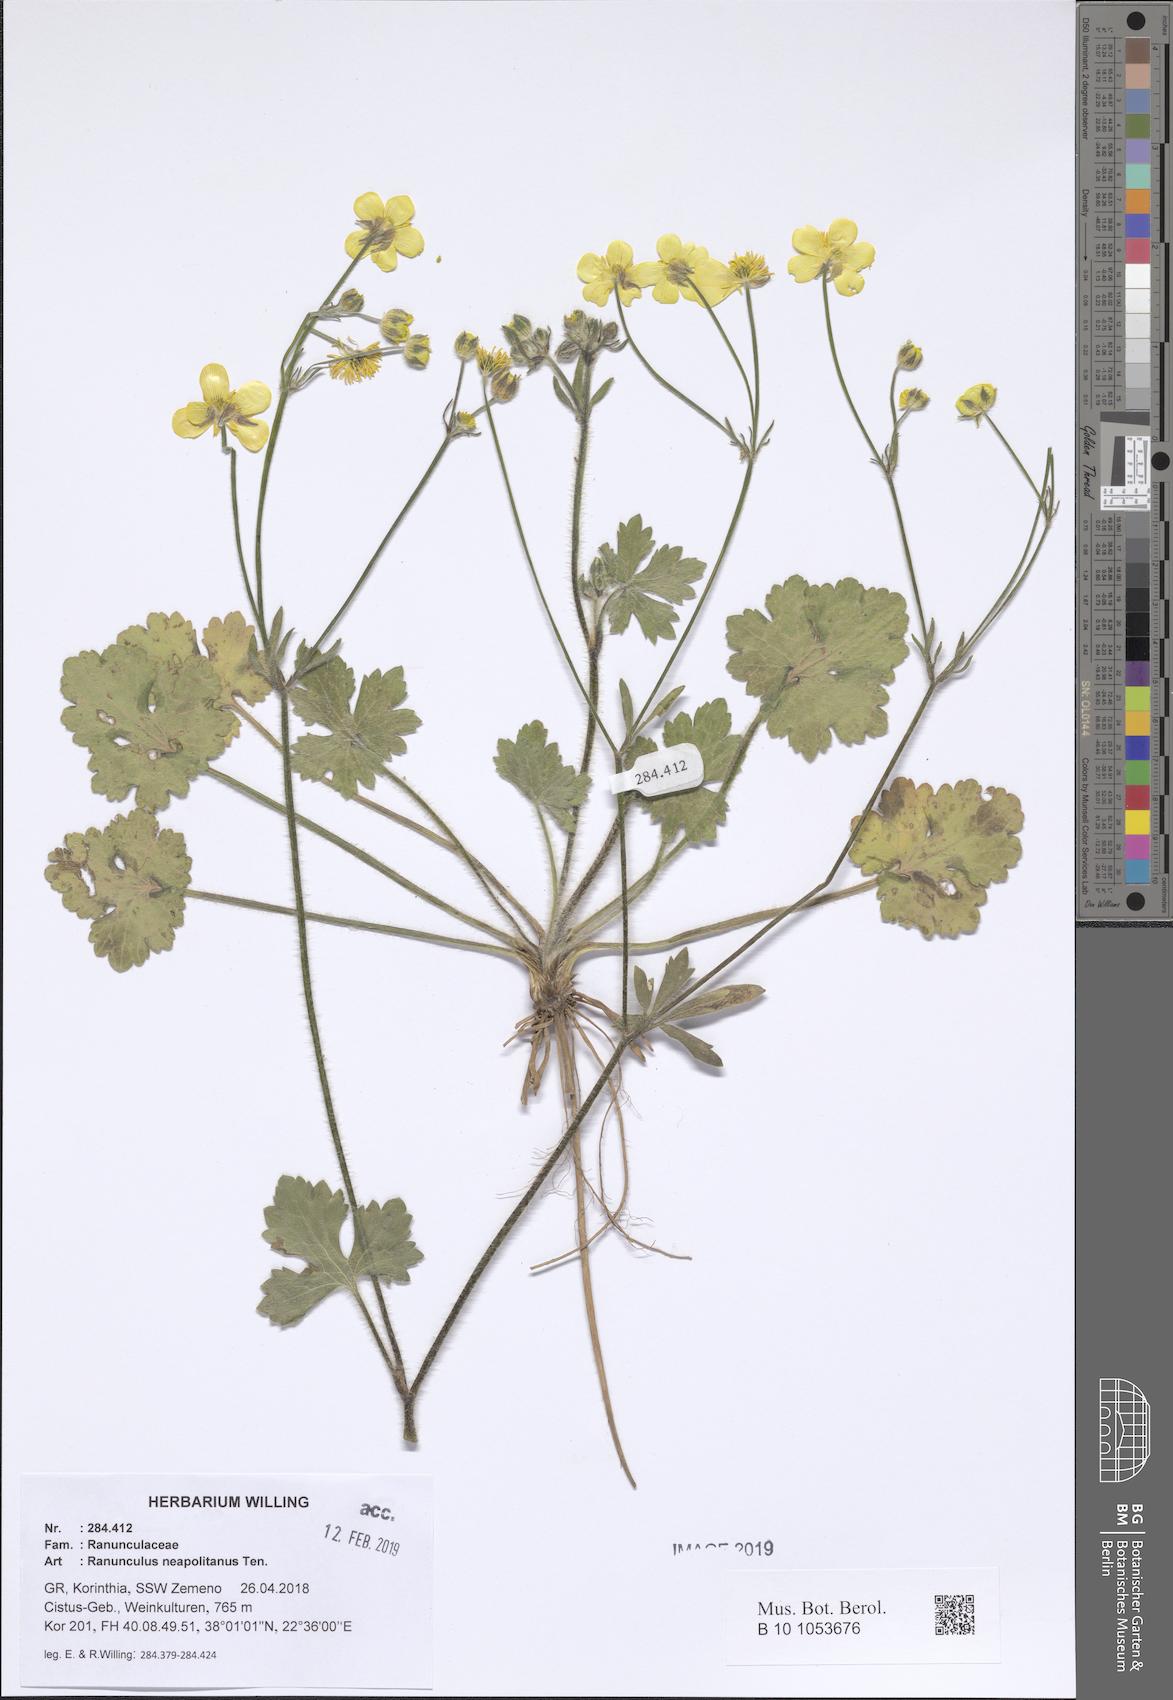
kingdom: Plantae
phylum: Tracheophyta
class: Magnoliopsida
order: Ranunculales
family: Ranunculaceae
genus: Ranunculus
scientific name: Ranunculus neapolitanus
